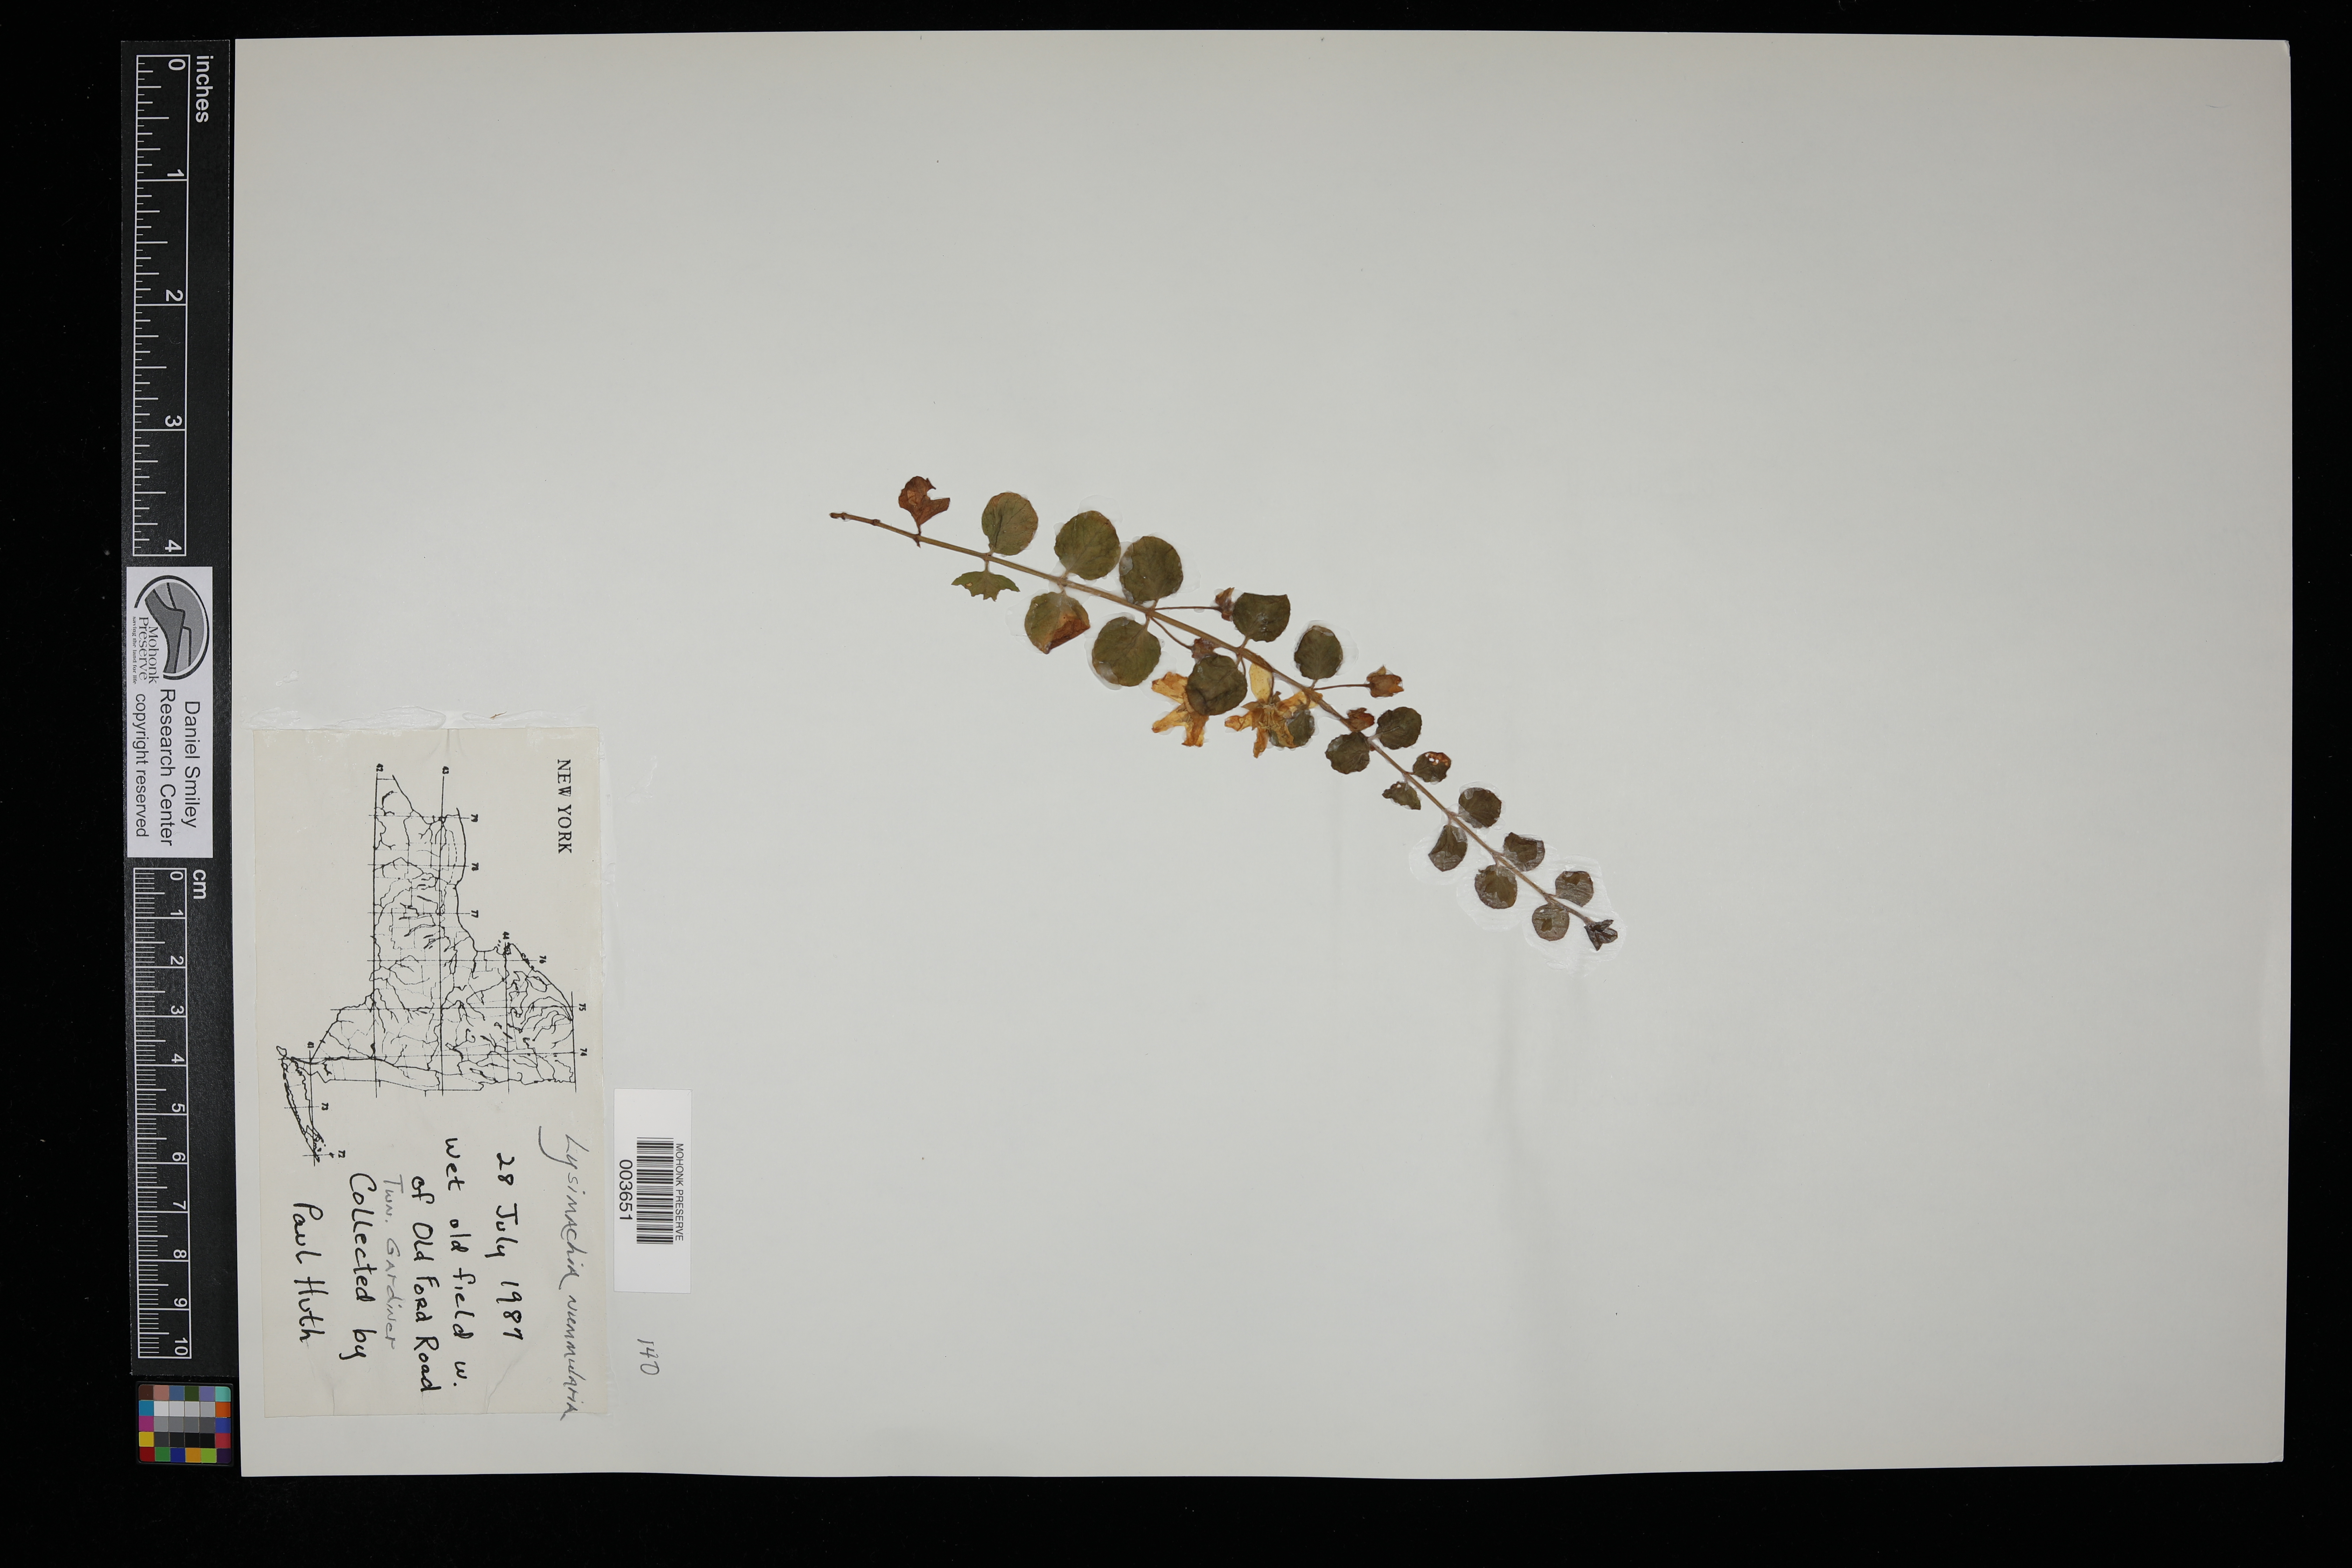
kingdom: Plantae
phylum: Tracheophyta
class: Magnoliopsida
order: Ericales
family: Primulaceae
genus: Lysimachia
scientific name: Lysimachia nummularia
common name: Moneywort
